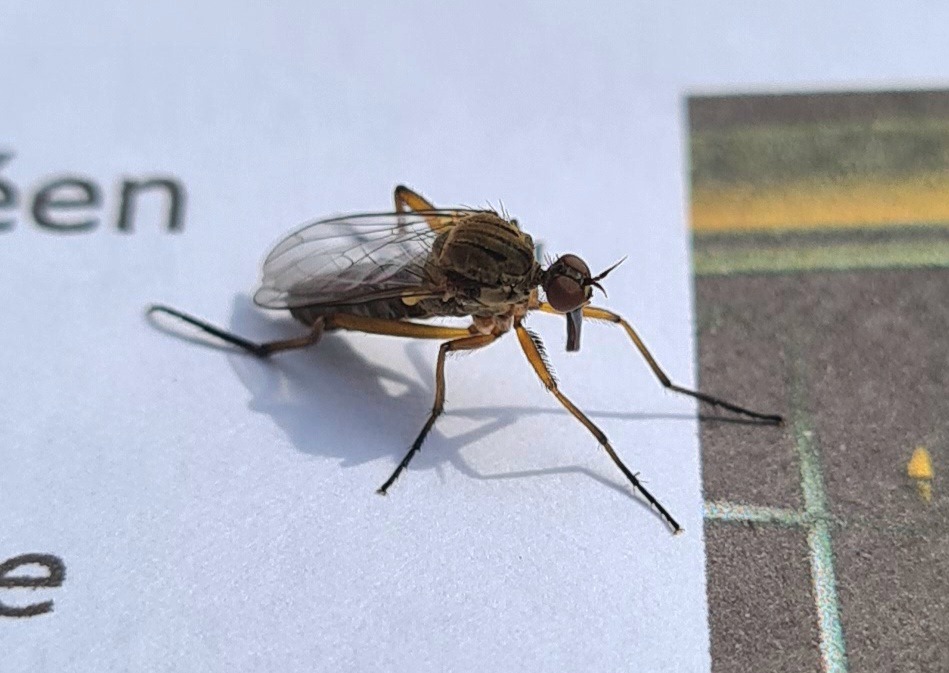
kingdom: Animalia
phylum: Arthropoda
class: Insecta
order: Diptera
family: Empididae
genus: Empis
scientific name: Empis livida
